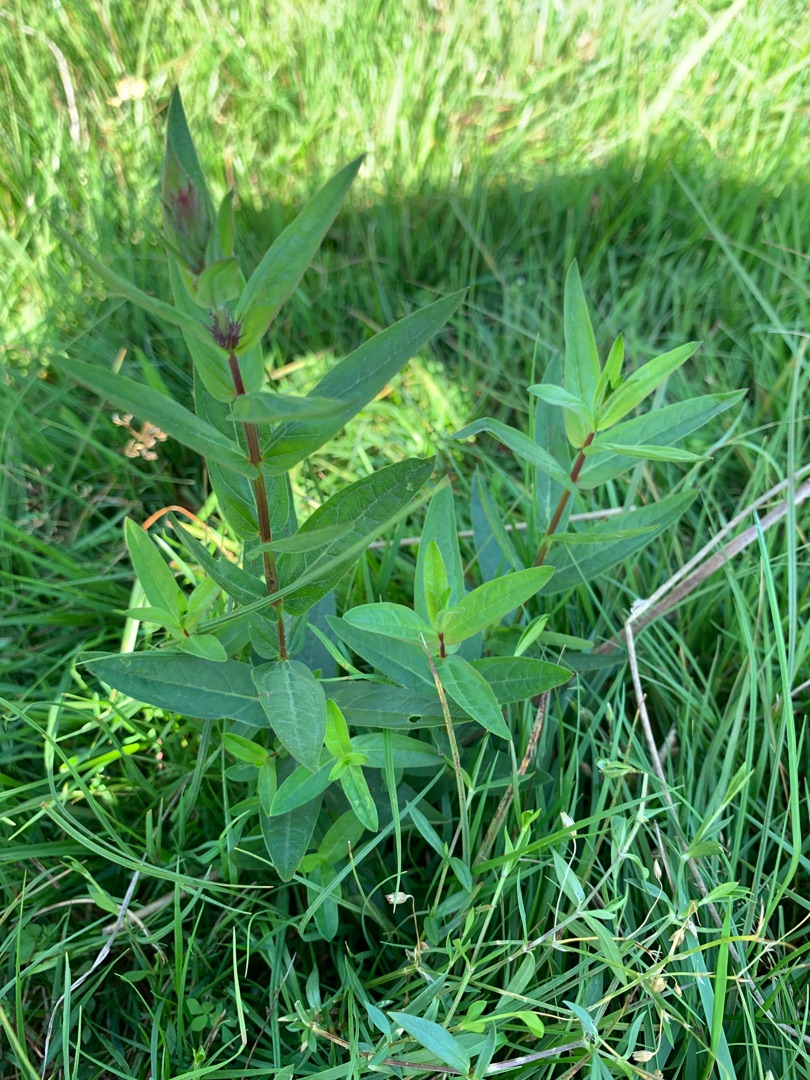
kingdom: Plantae
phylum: Tracheophyta
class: Magnoliopsida
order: Myrtales
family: Lythraceae
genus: Lythrum
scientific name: Lythrum salicaria
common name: Kattehale
